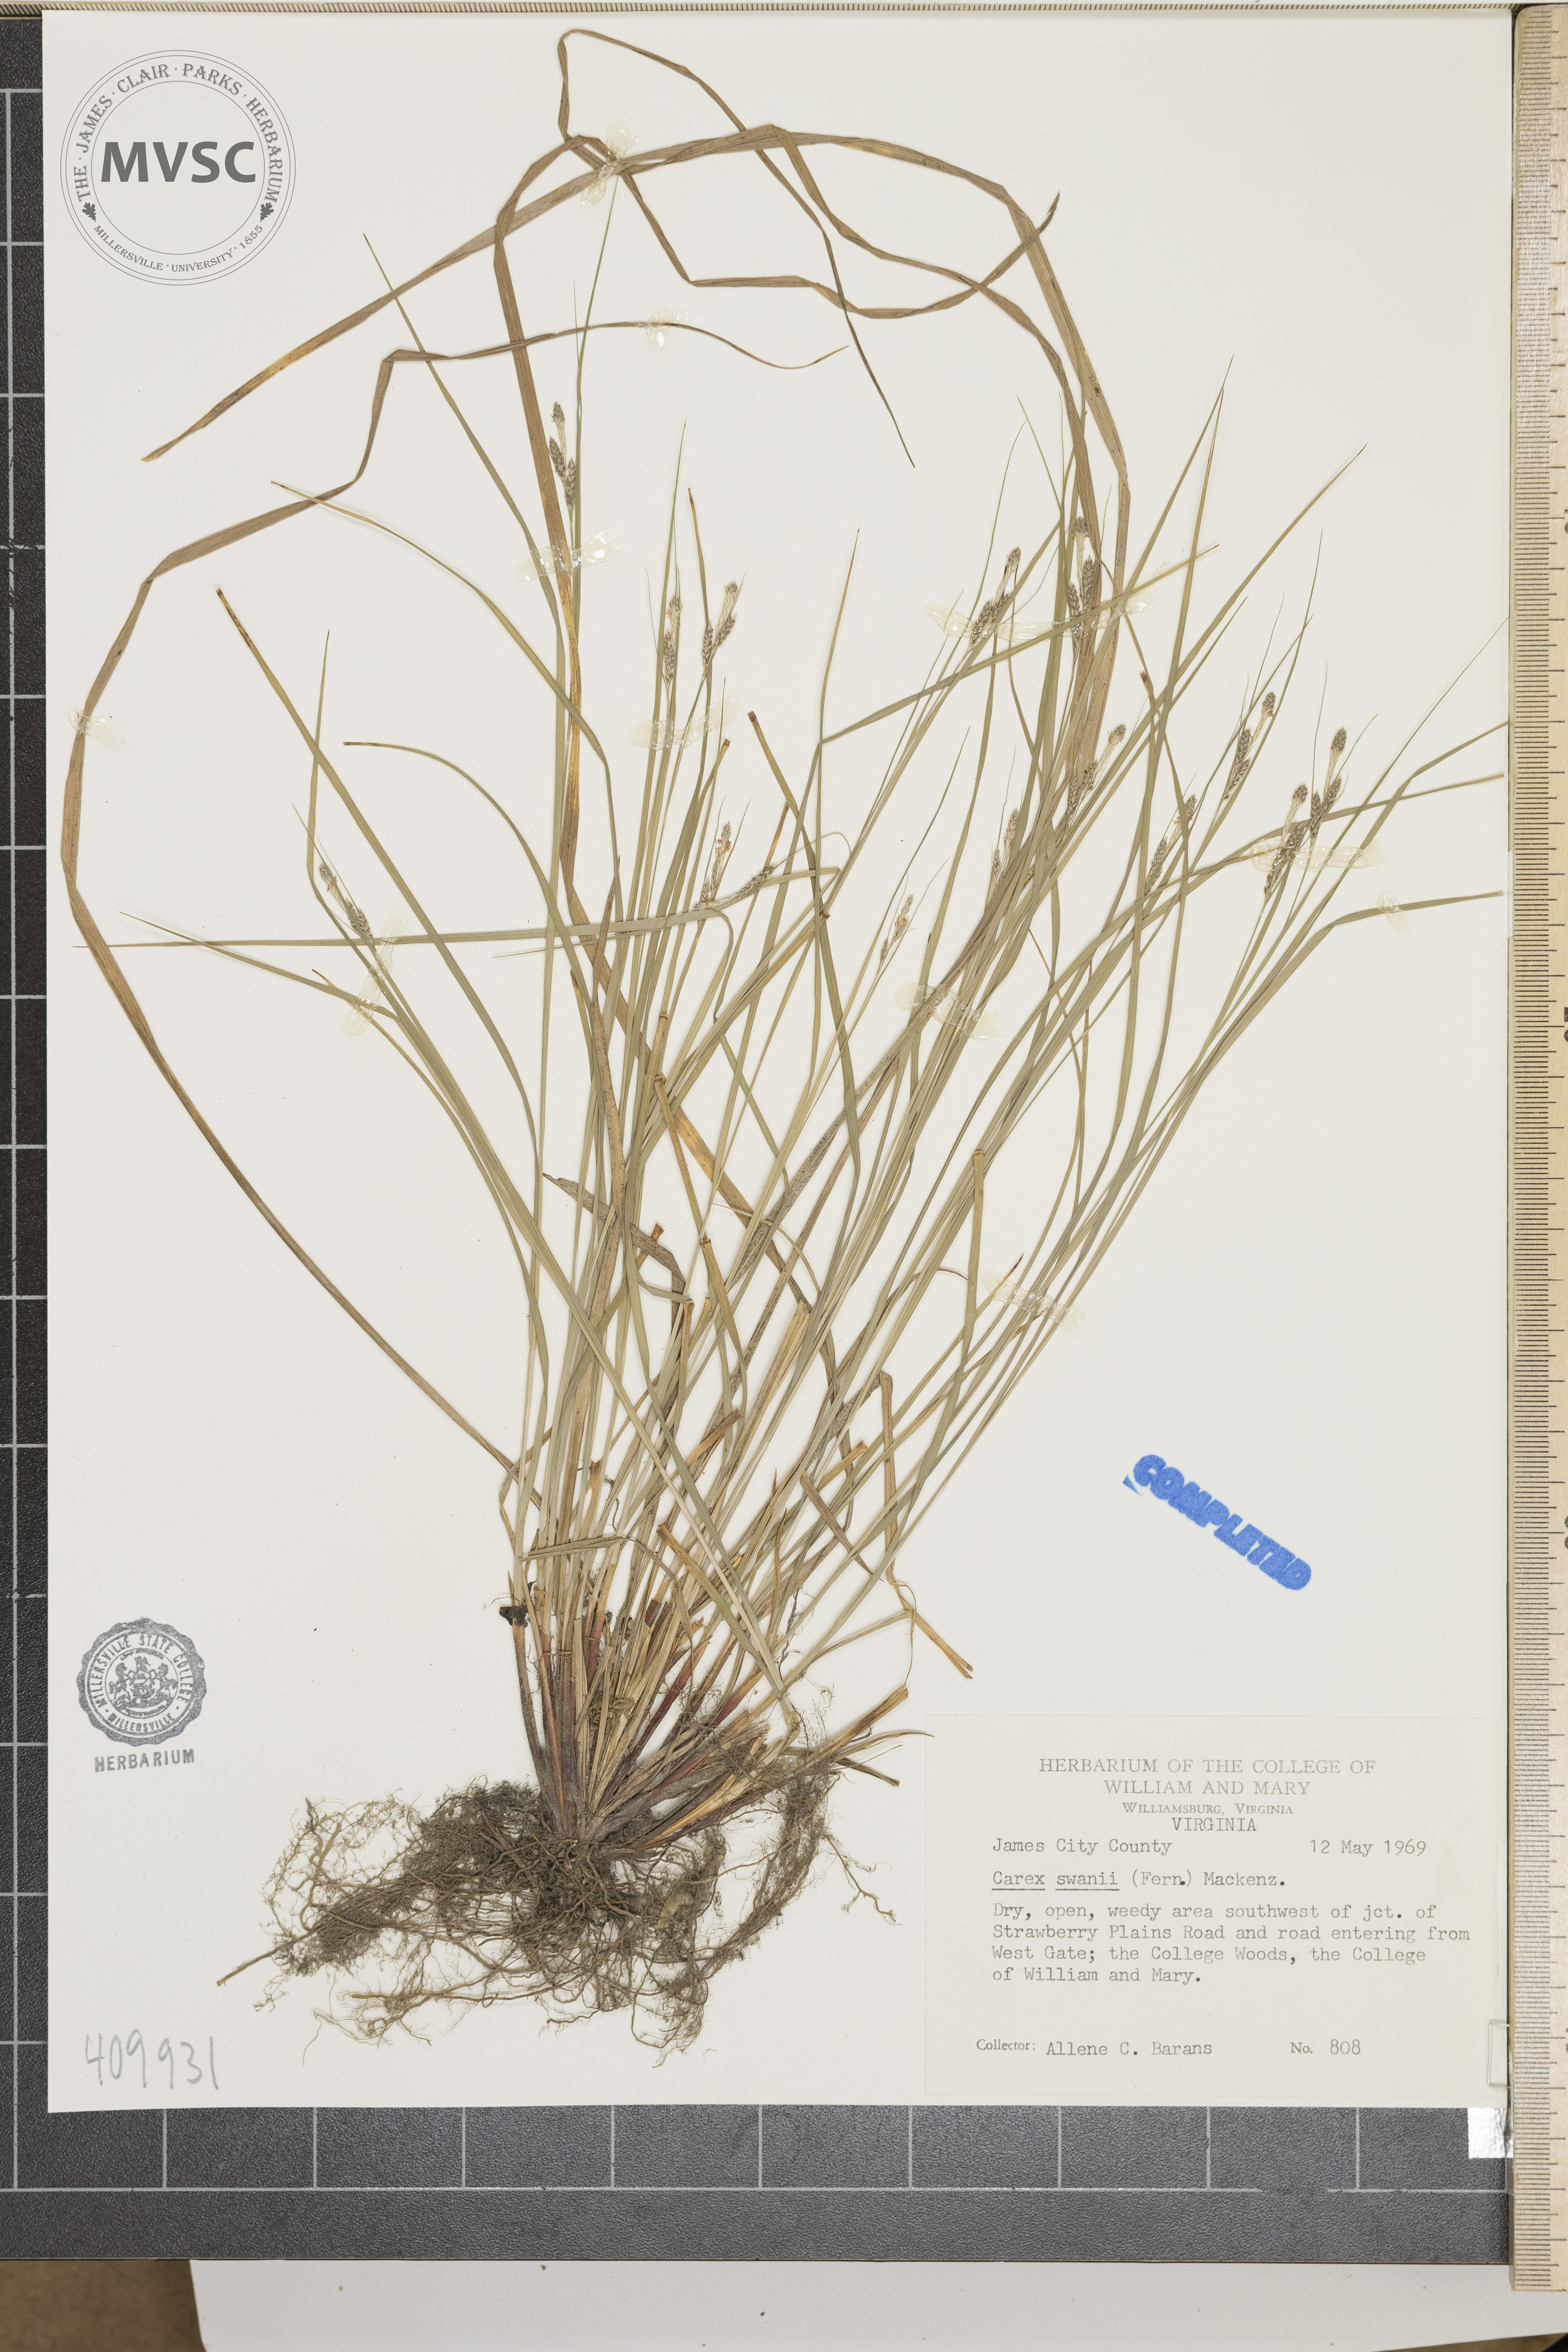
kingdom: Plantae
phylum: Tracheophyta
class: Liliopsida
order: Poales
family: Cyperaceae
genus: Carex
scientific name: Carex swanii
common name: Downy green sedge
